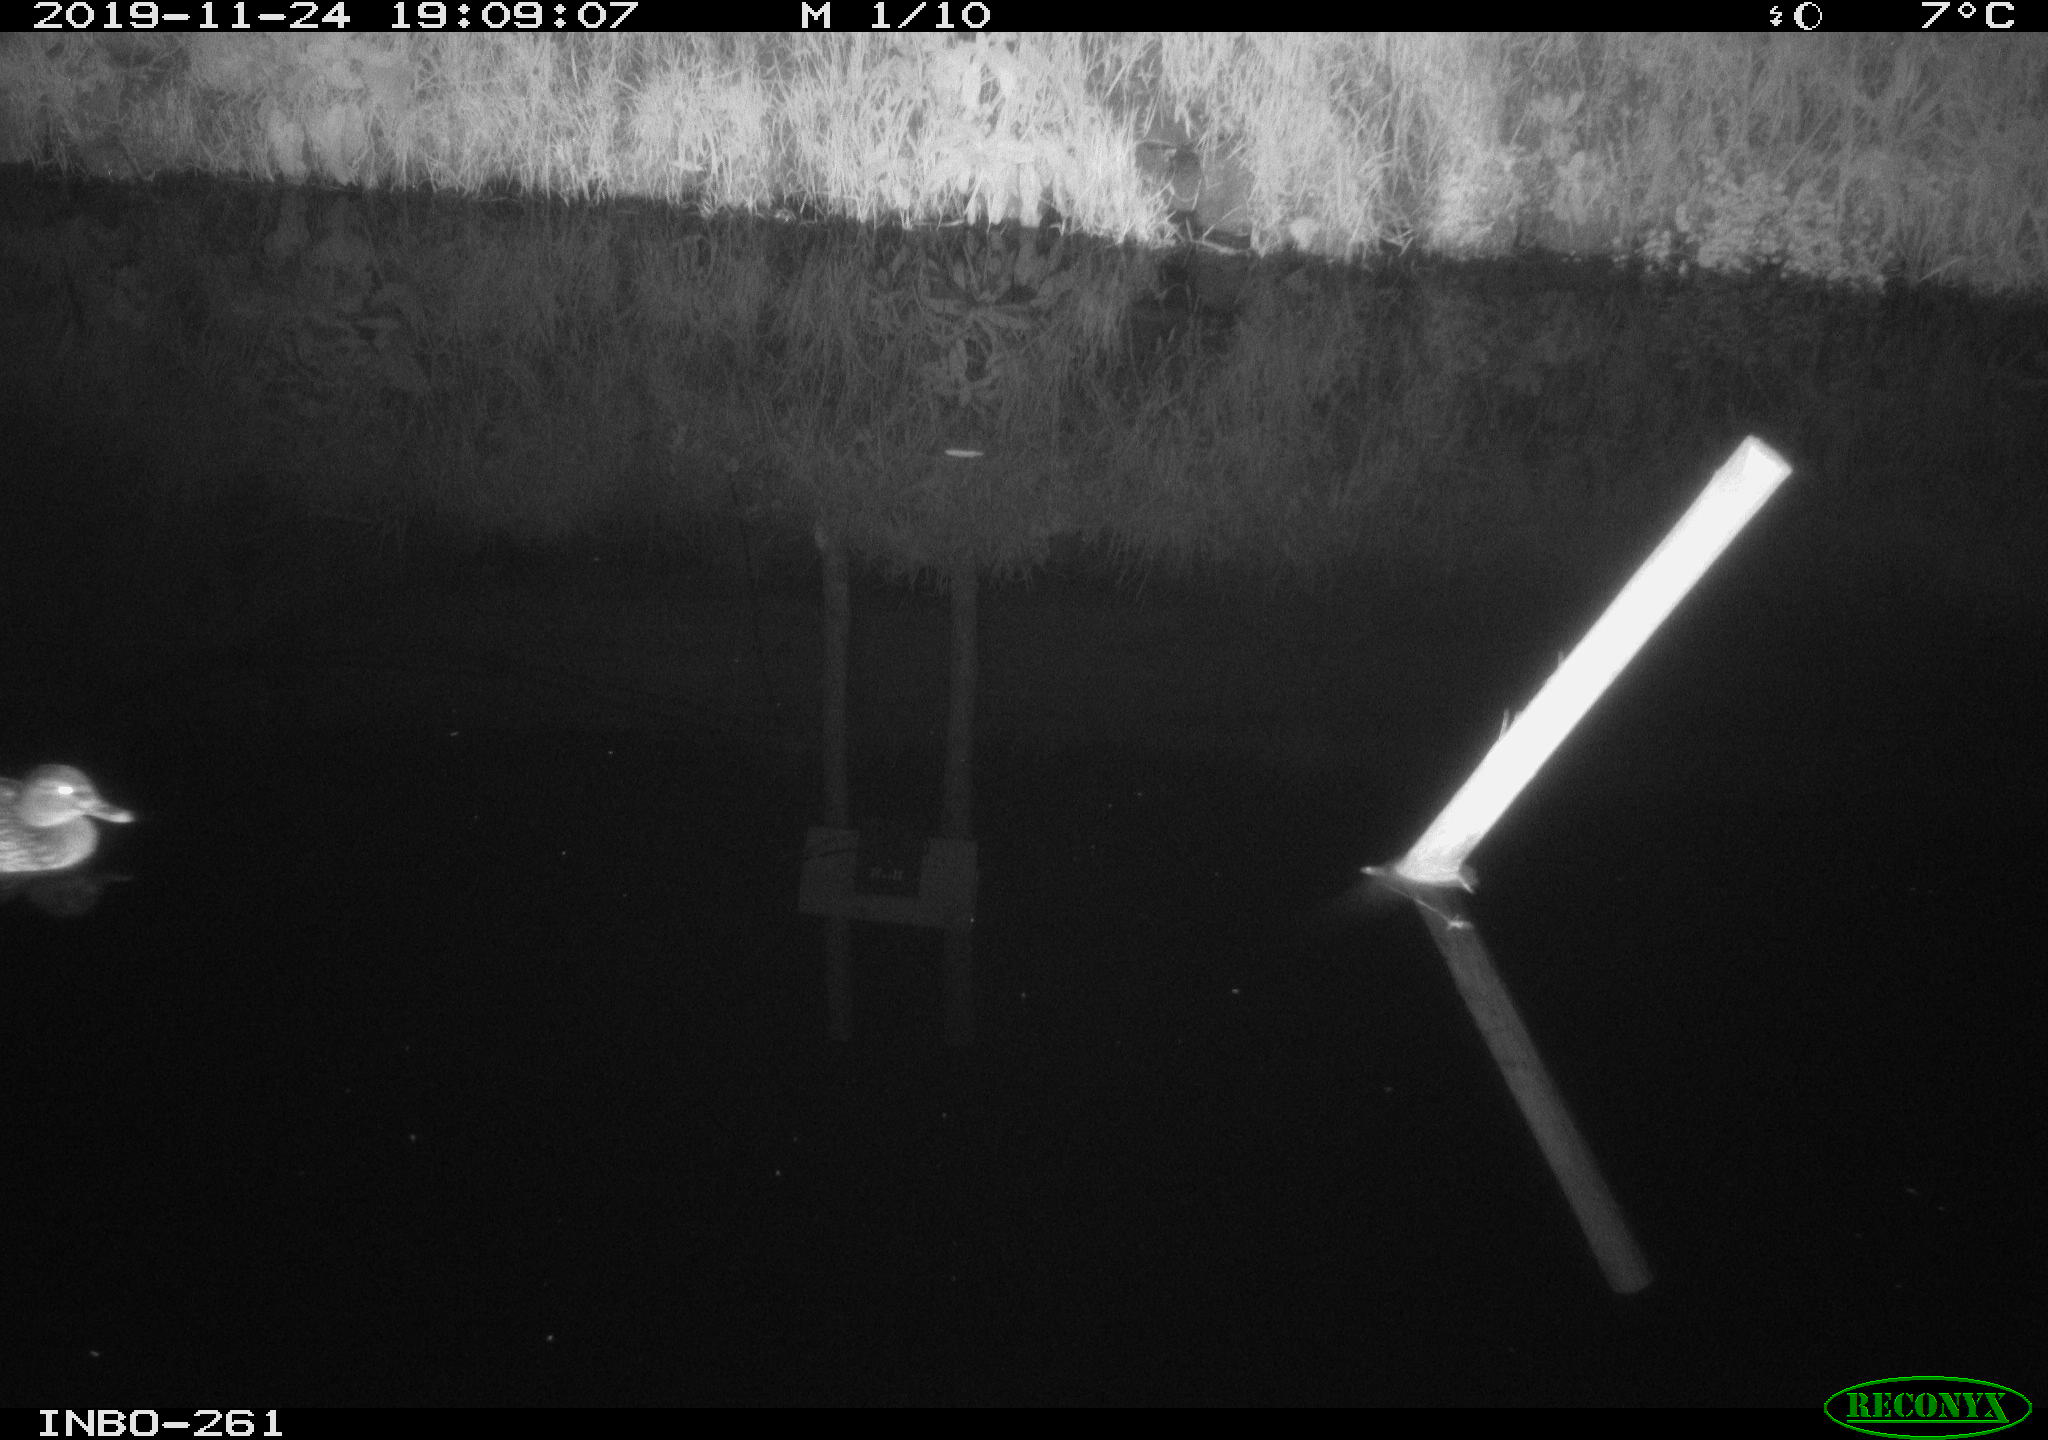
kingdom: Animalia
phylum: Chordata
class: Aves
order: Anseriformes
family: Anatidae
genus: Anas
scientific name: Anas platyrhynchos
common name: Mallard
